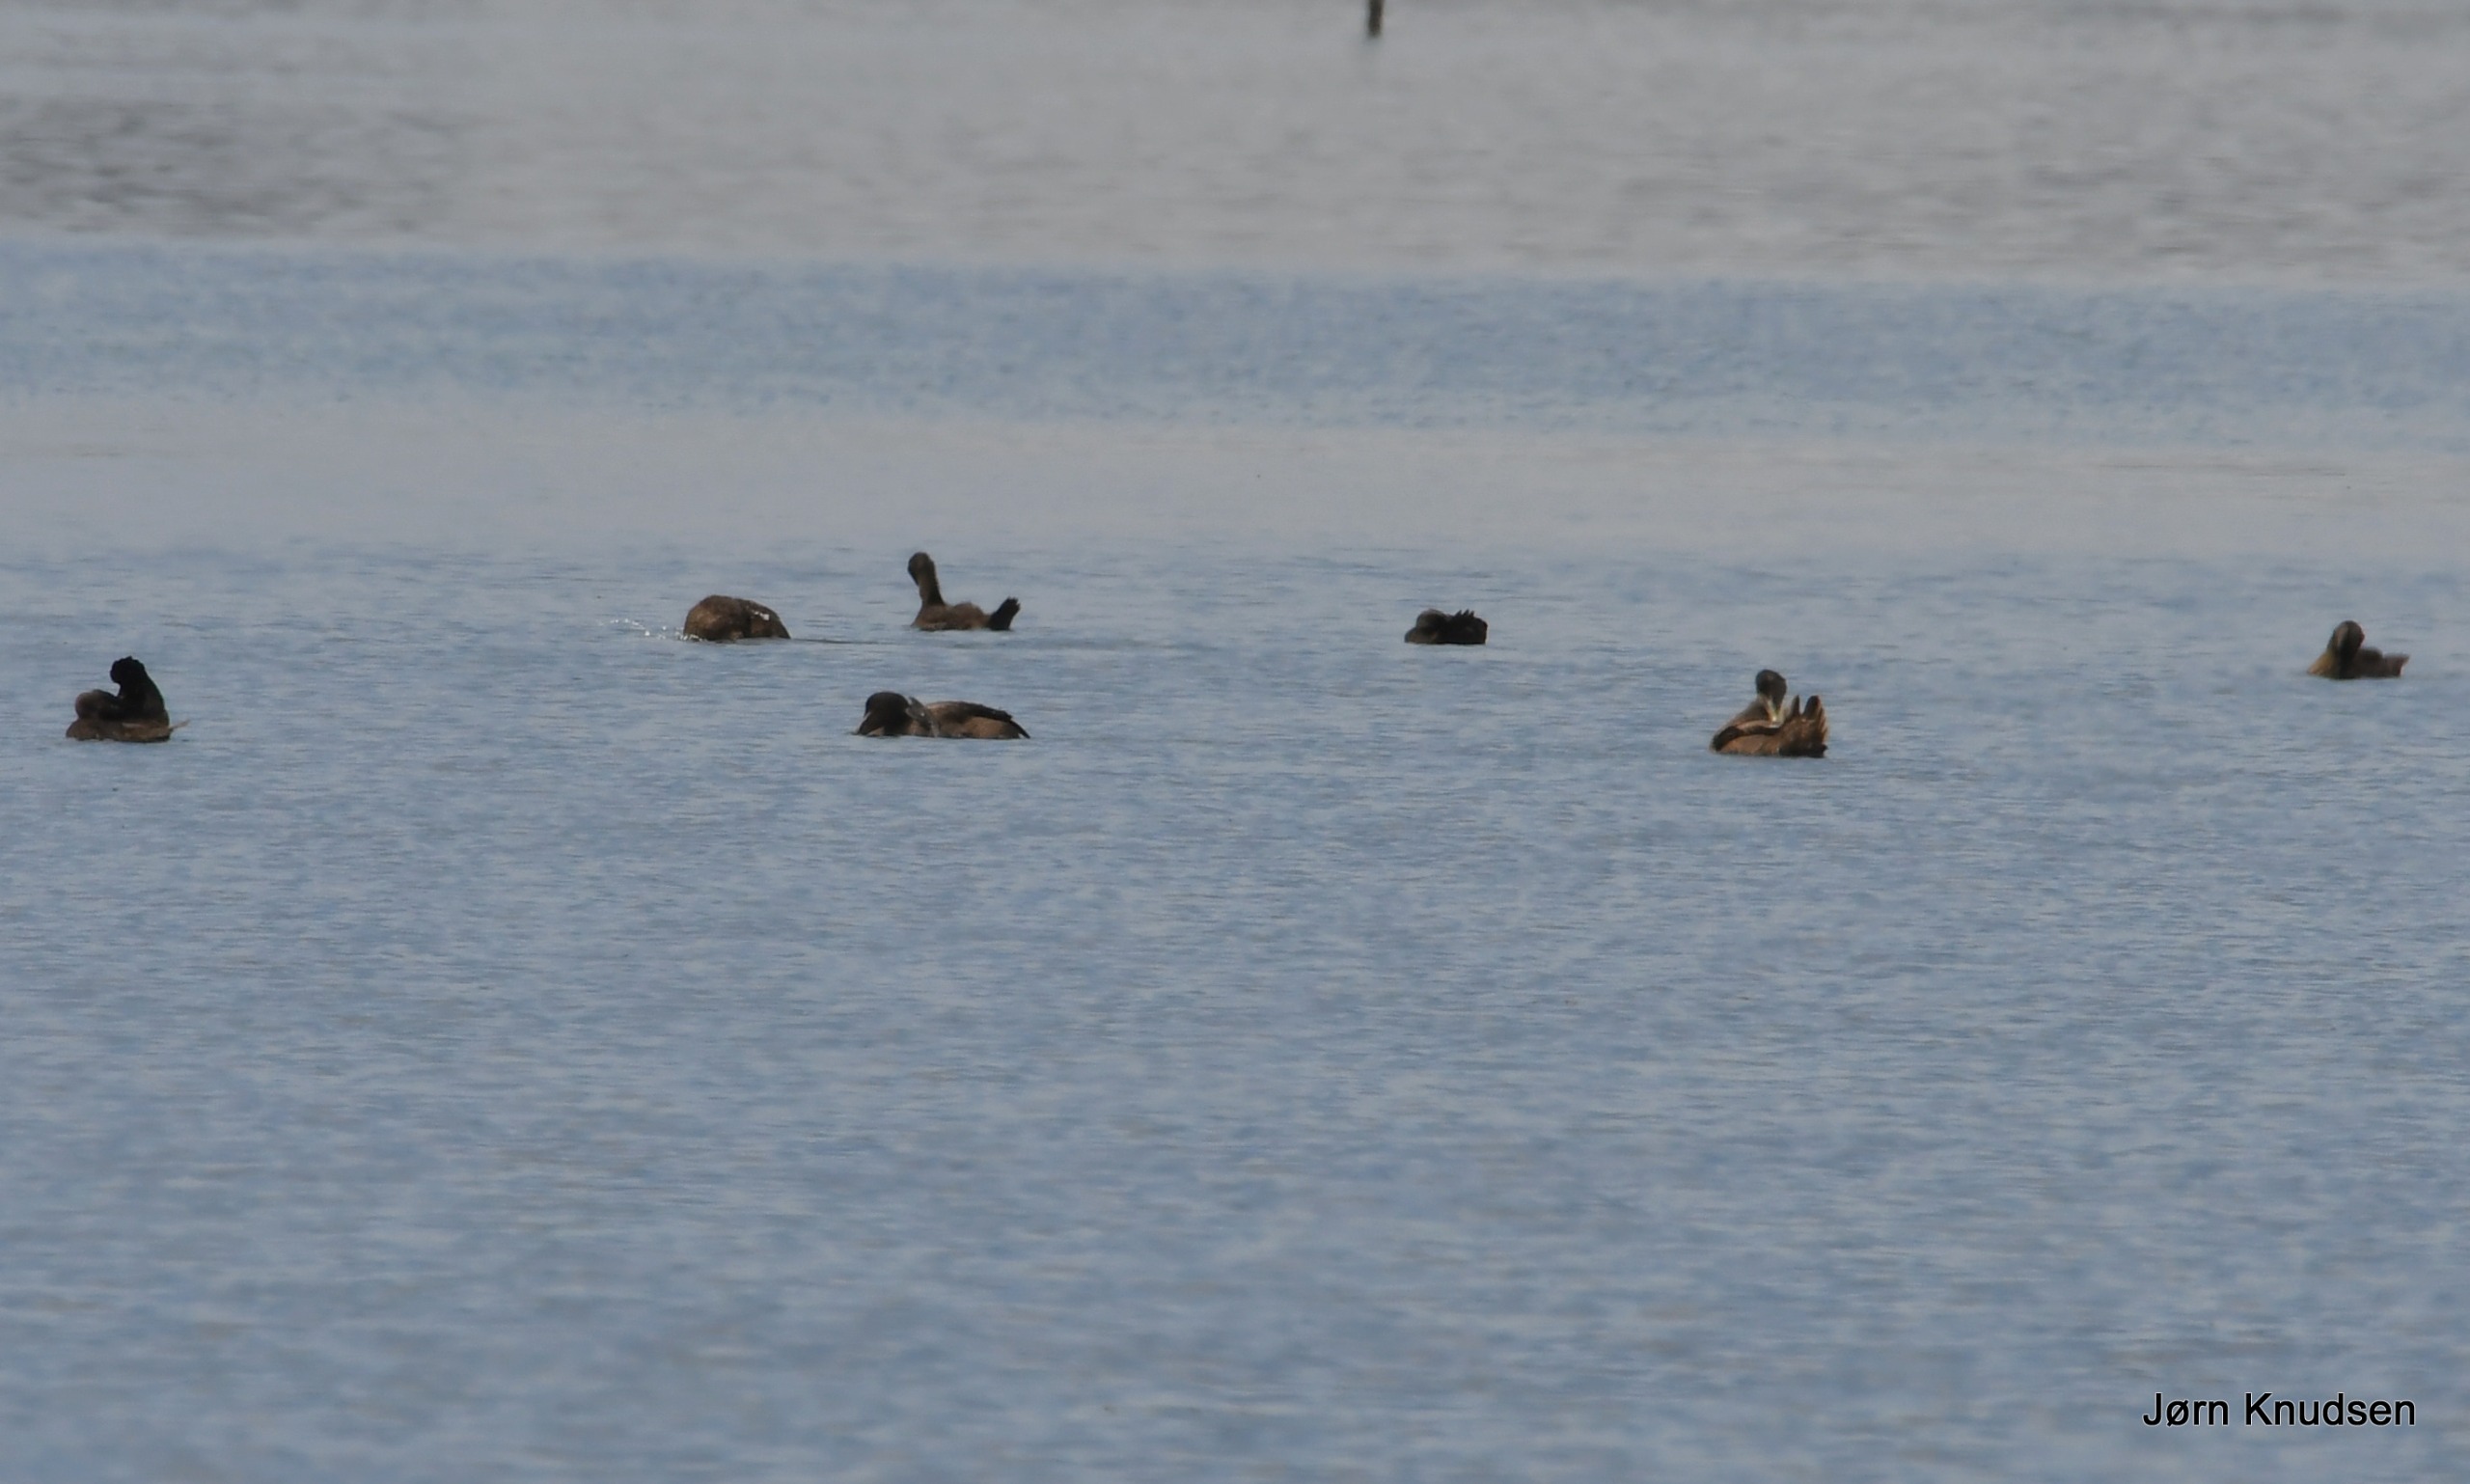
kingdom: Animalia
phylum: Chordata
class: Aves
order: Anseriformes
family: Anatidae
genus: Somateria
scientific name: Somateria mollissima
